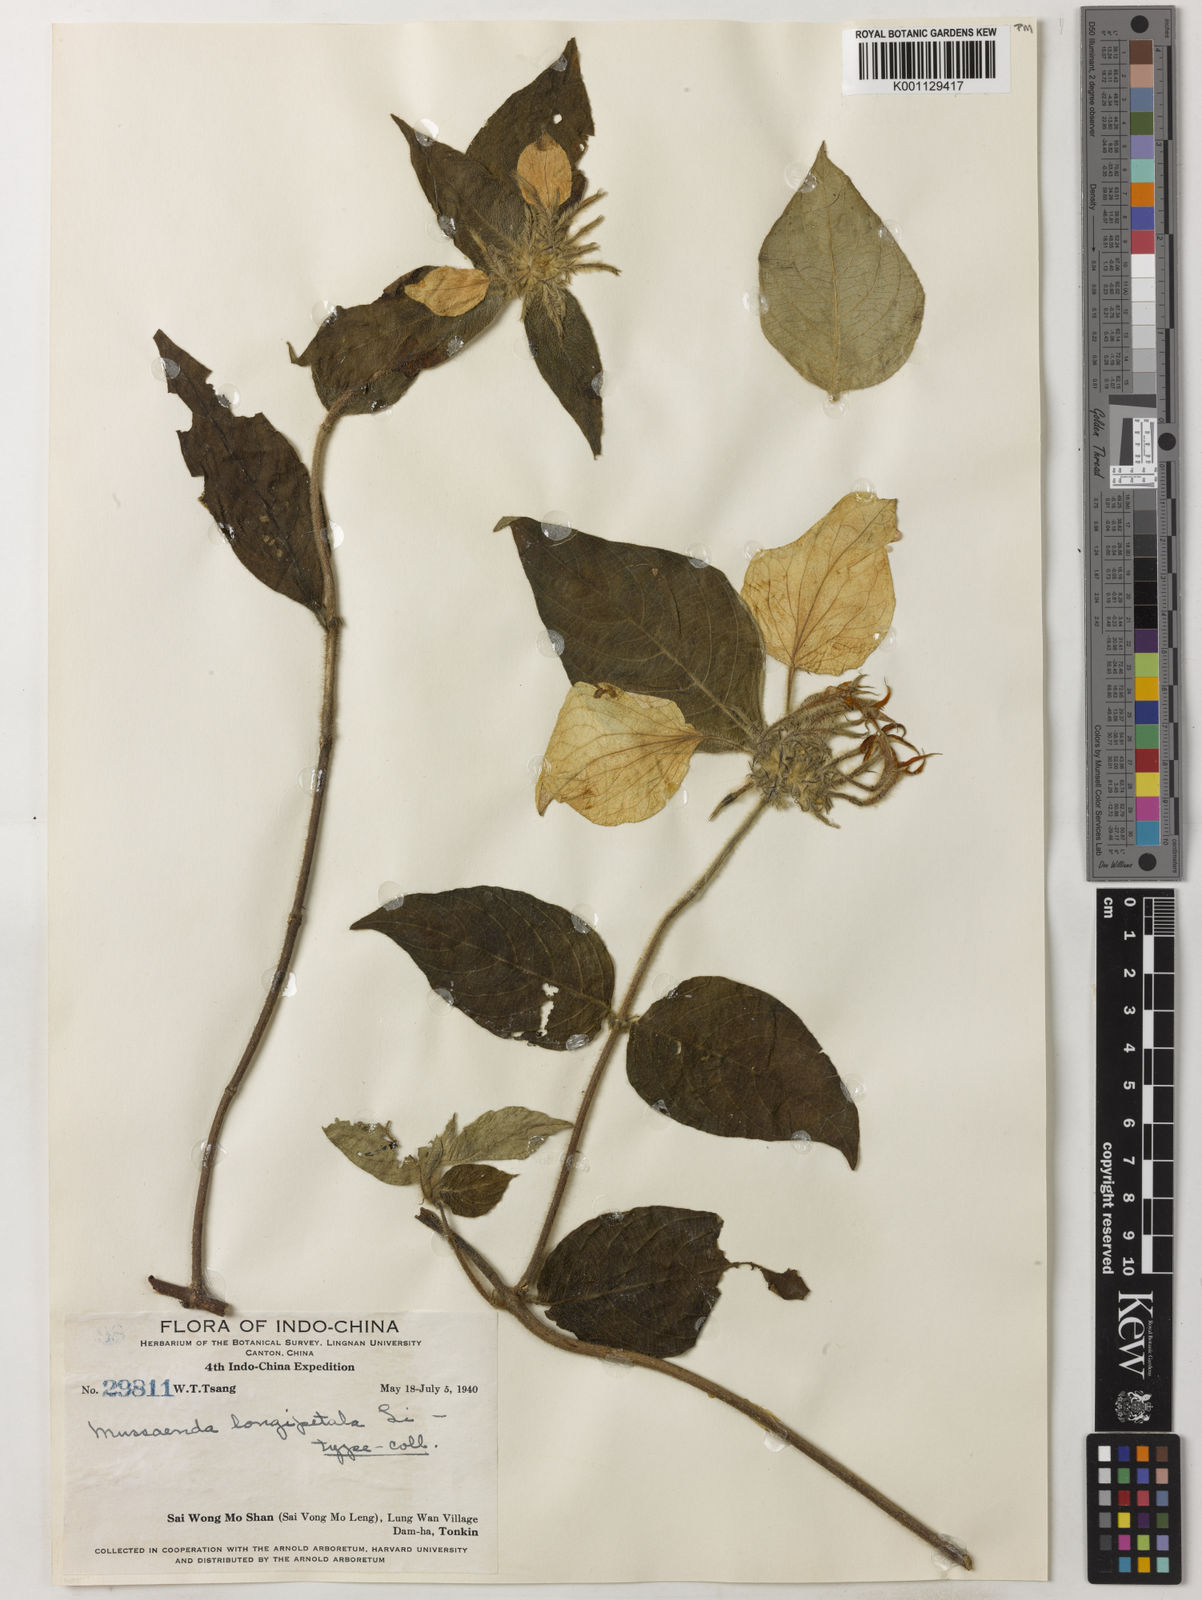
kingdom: Plantae
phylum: Tracheophyta
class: Magnoliopsida
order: Gentianales
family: Rubiaceae
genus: Mussaenda
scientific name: Mussaenda longipetala
